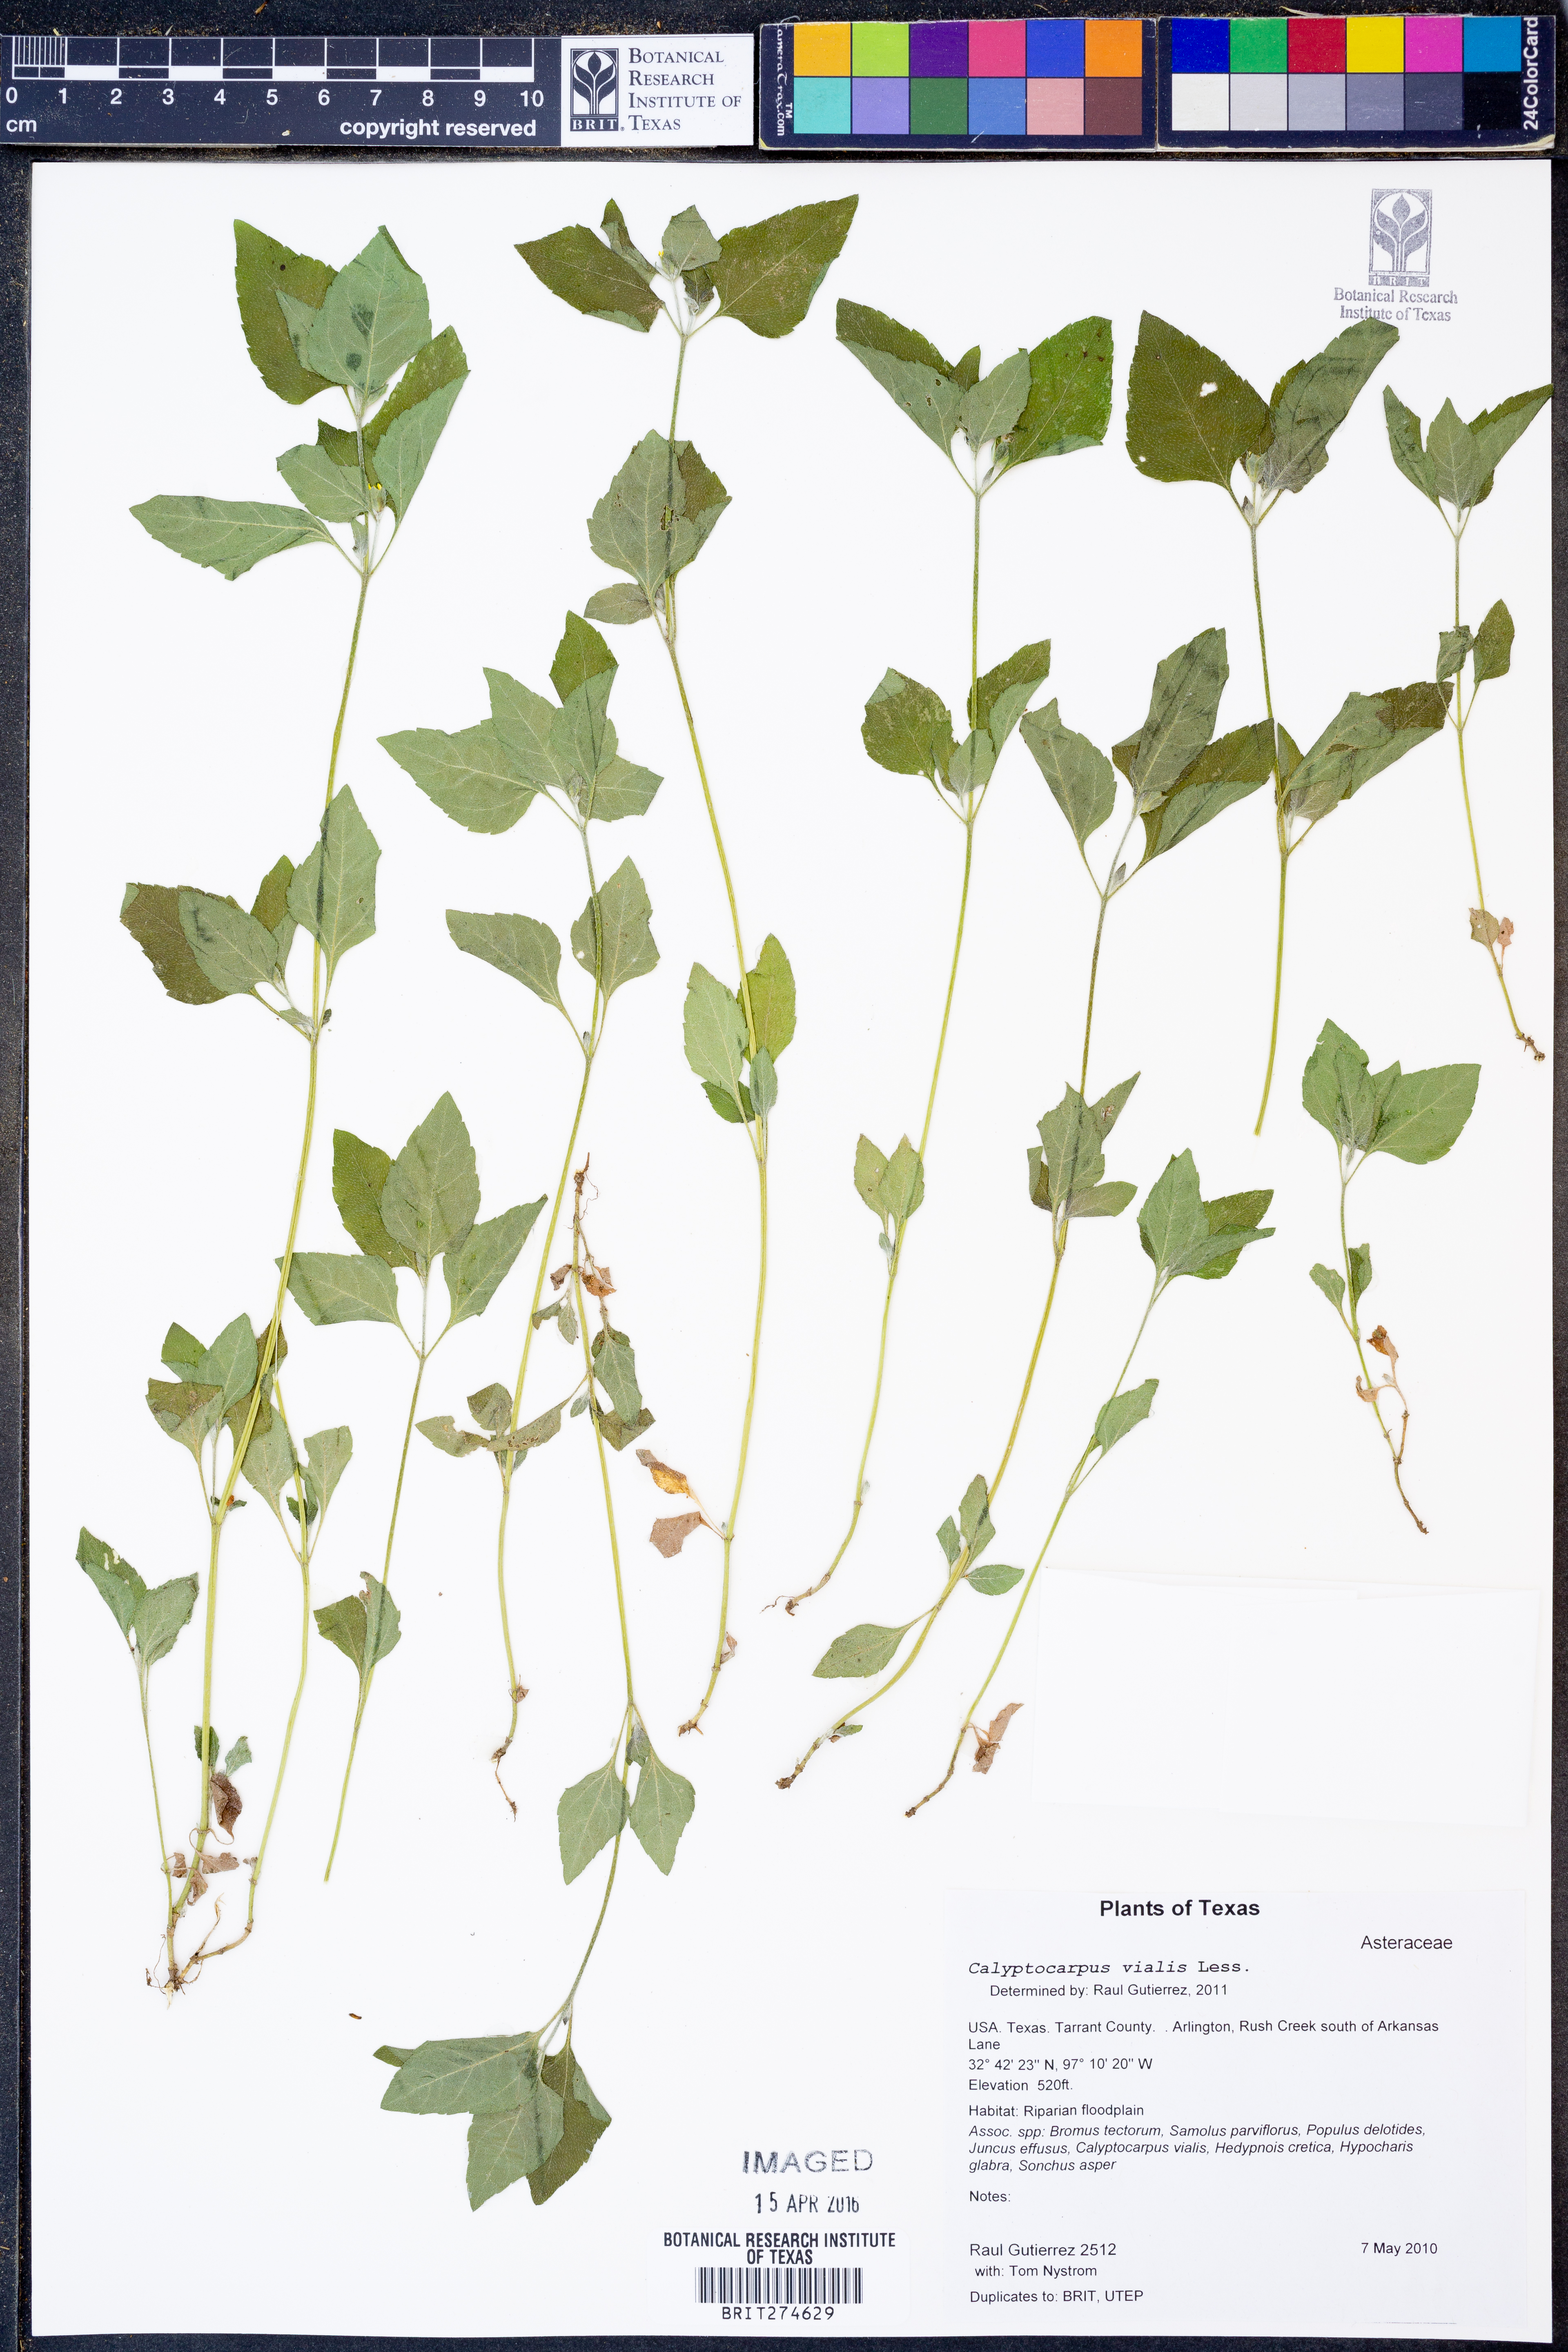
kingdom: Plantae
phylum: Tracheophyta
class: Magnoliopsida
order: Asterales
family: Asteraceae
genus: Calyptocarpus
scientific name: Calyptocarpus vialis
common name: Straggler daisy
